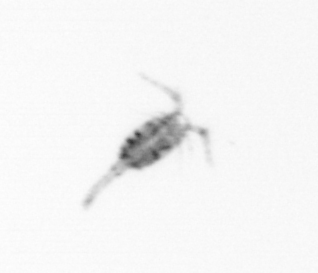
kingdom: Animalia
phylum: Arthropoda
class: Copepoda
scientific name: Copepoda
